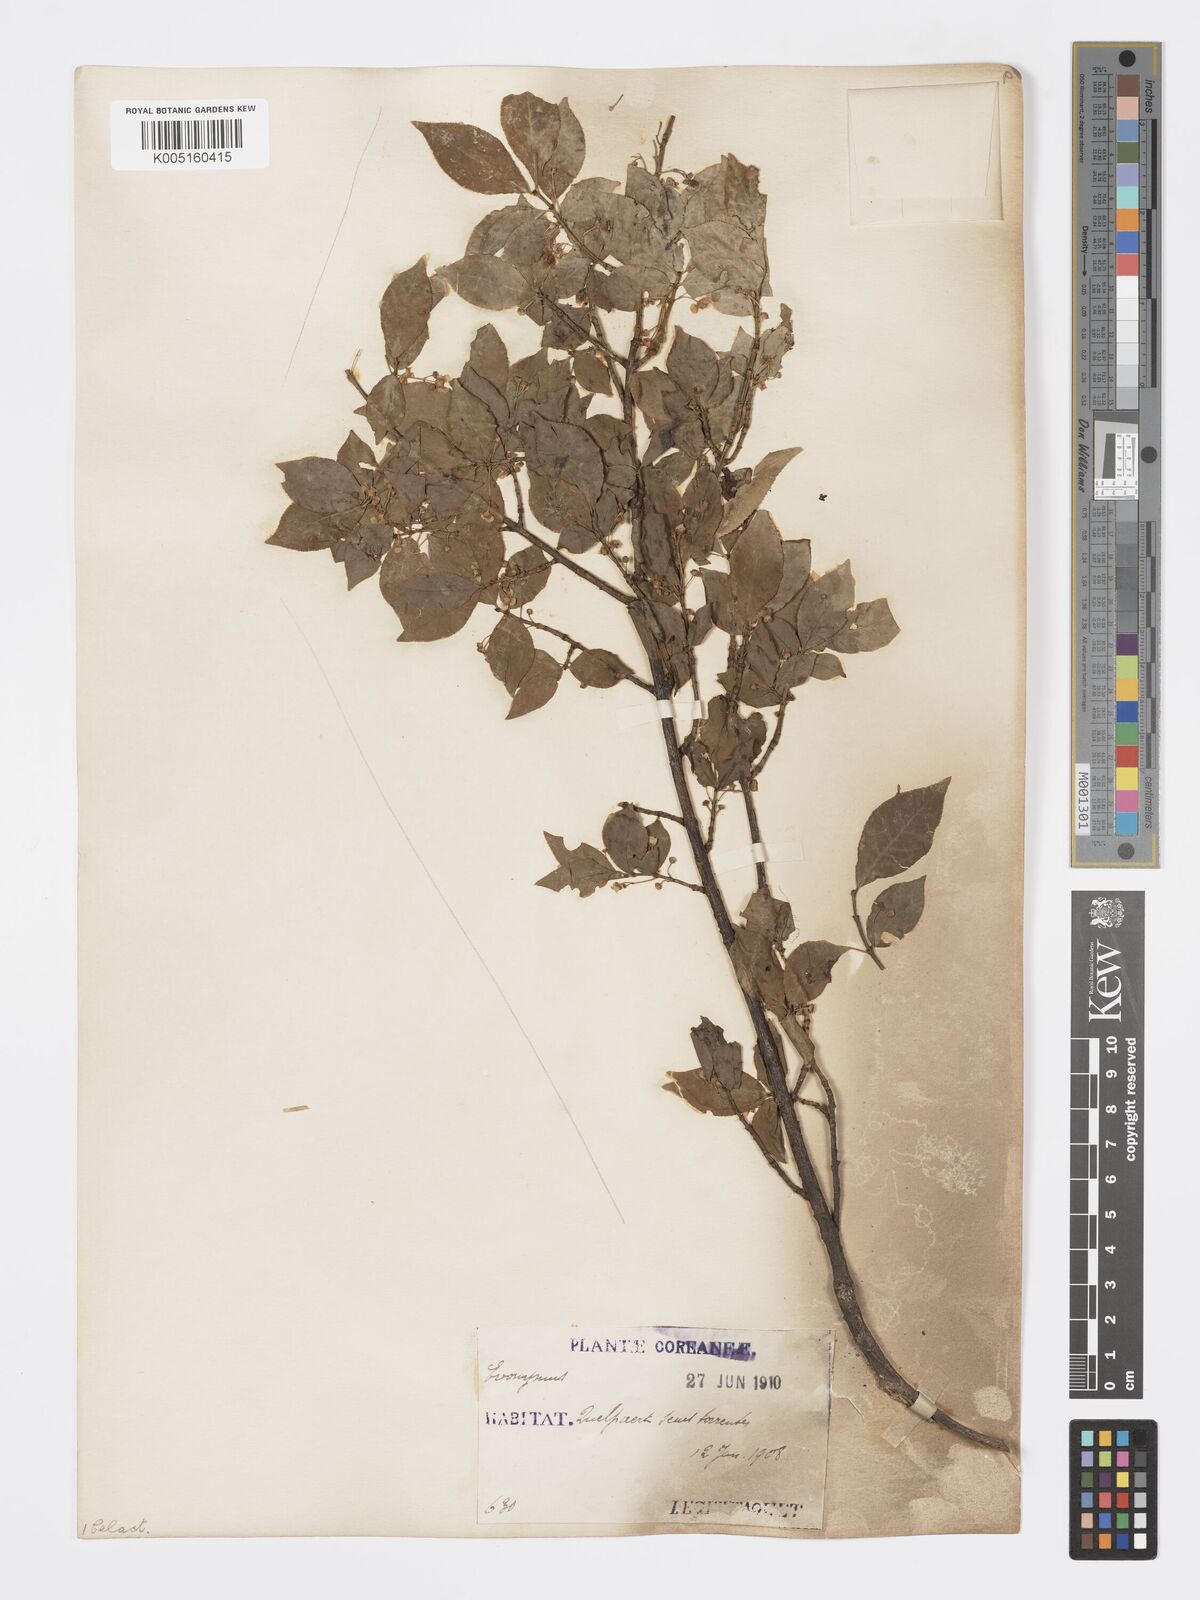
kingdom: Plantae
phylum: Tracheophyta
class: Magnoliopsida
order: Celastrales
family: Celastraceae
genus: Euonymus
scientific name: Euonymus
